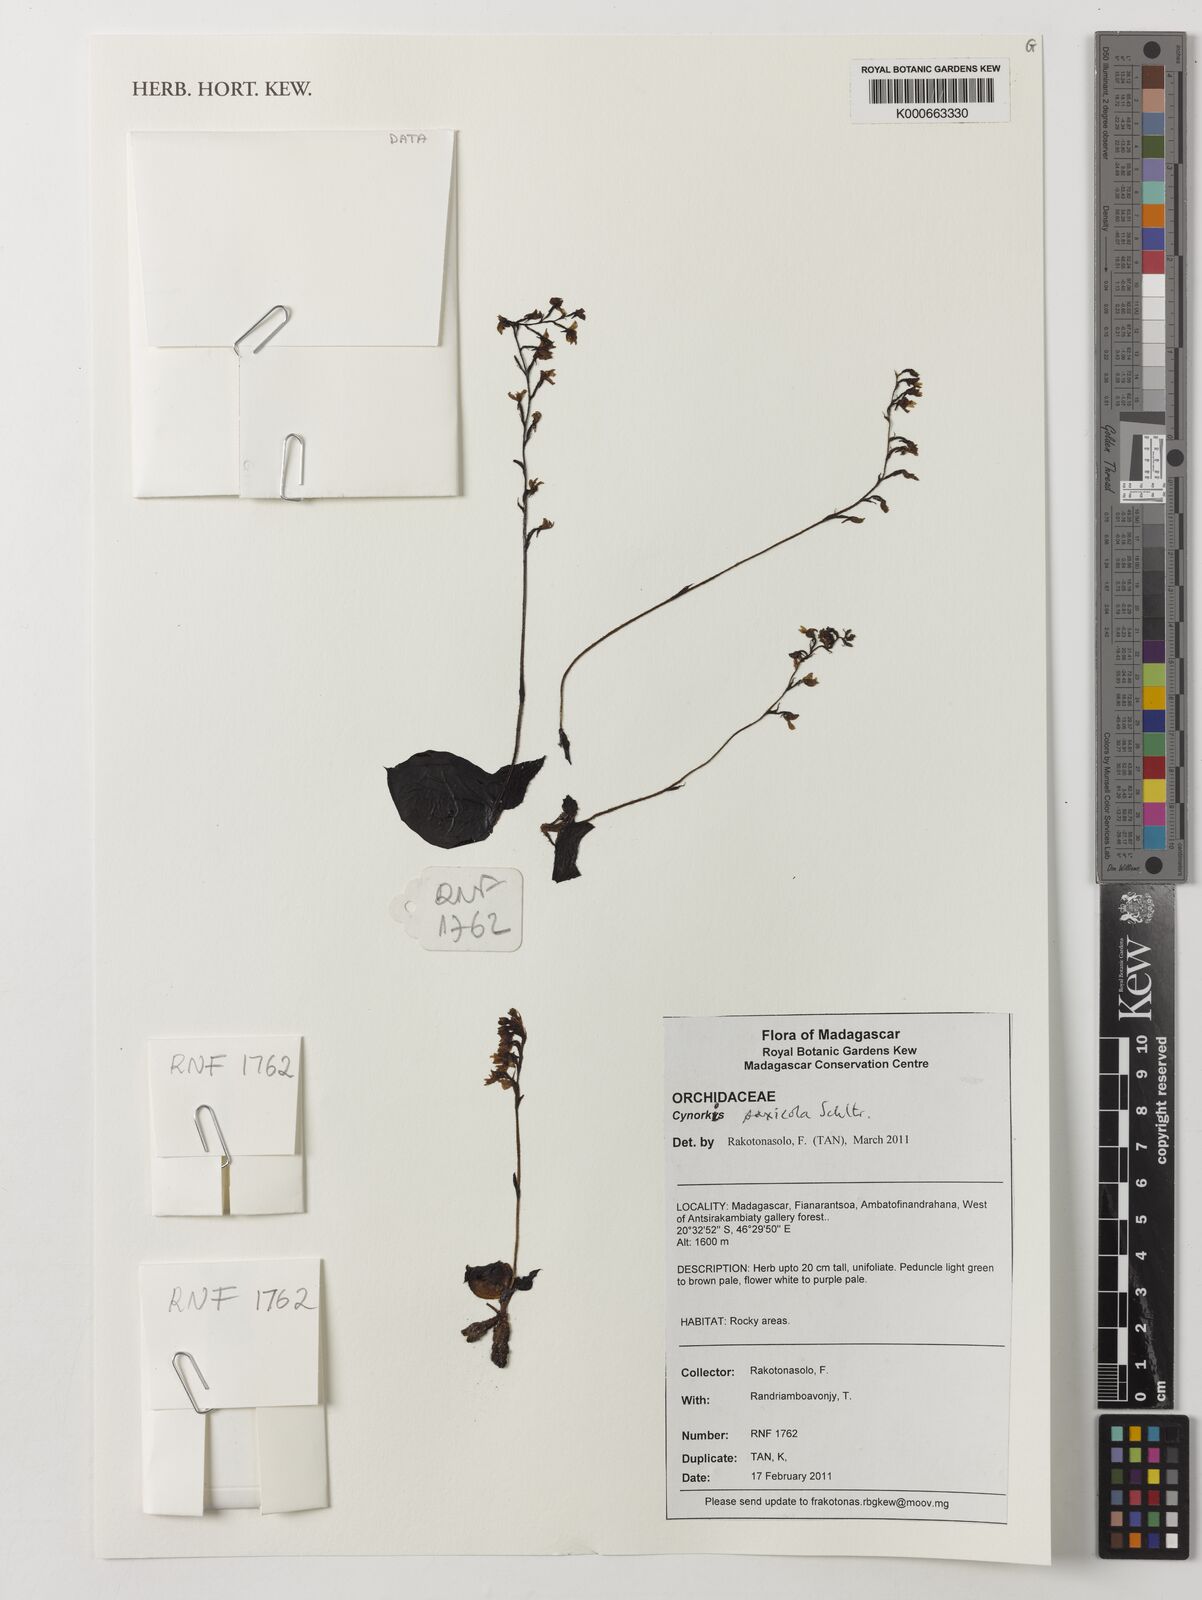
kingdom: Plantae
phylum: Tracheophyta
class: Liliopsida
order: Asparagales
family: Orchidaceae
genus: Cynorkis
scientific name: Cynorkis saxicola
